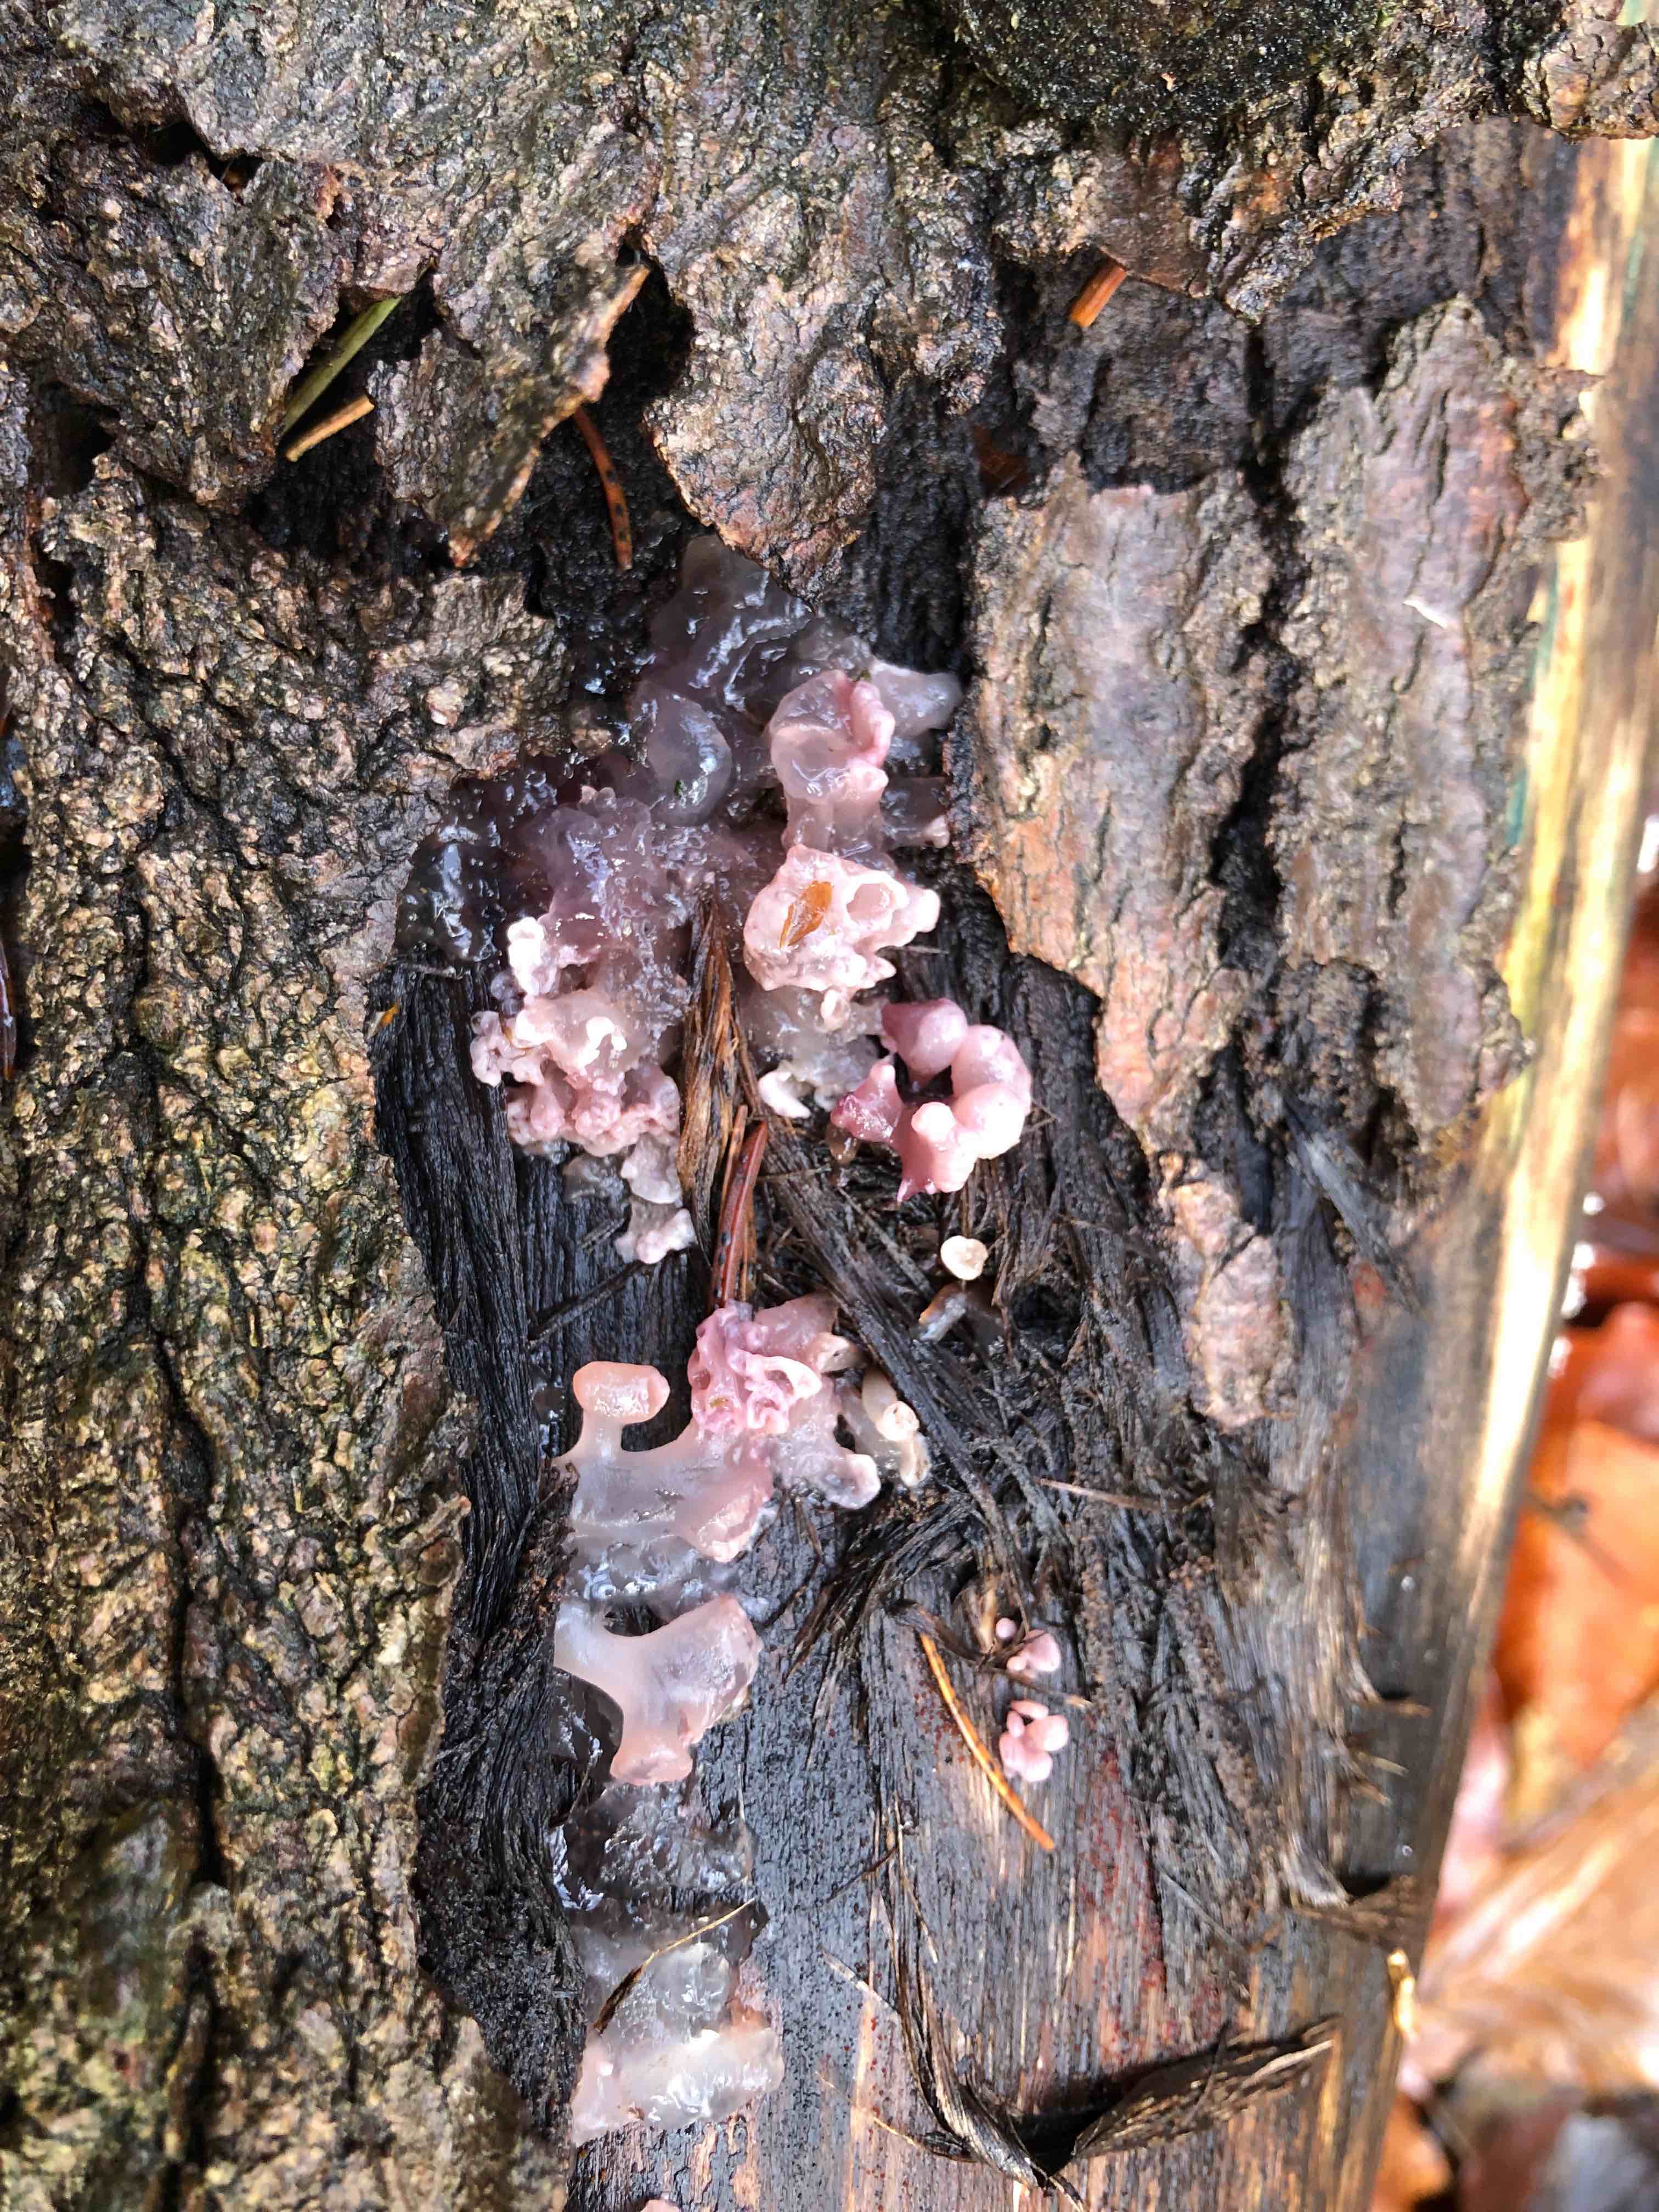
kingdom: Fungi
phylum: Ascomycota
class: Leotiomycetes
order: Helotiales
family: Gelatinodiscaceae
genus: Ascocoryne
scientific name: Ascocoryne sarcoides
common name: rødlilla sejskive
